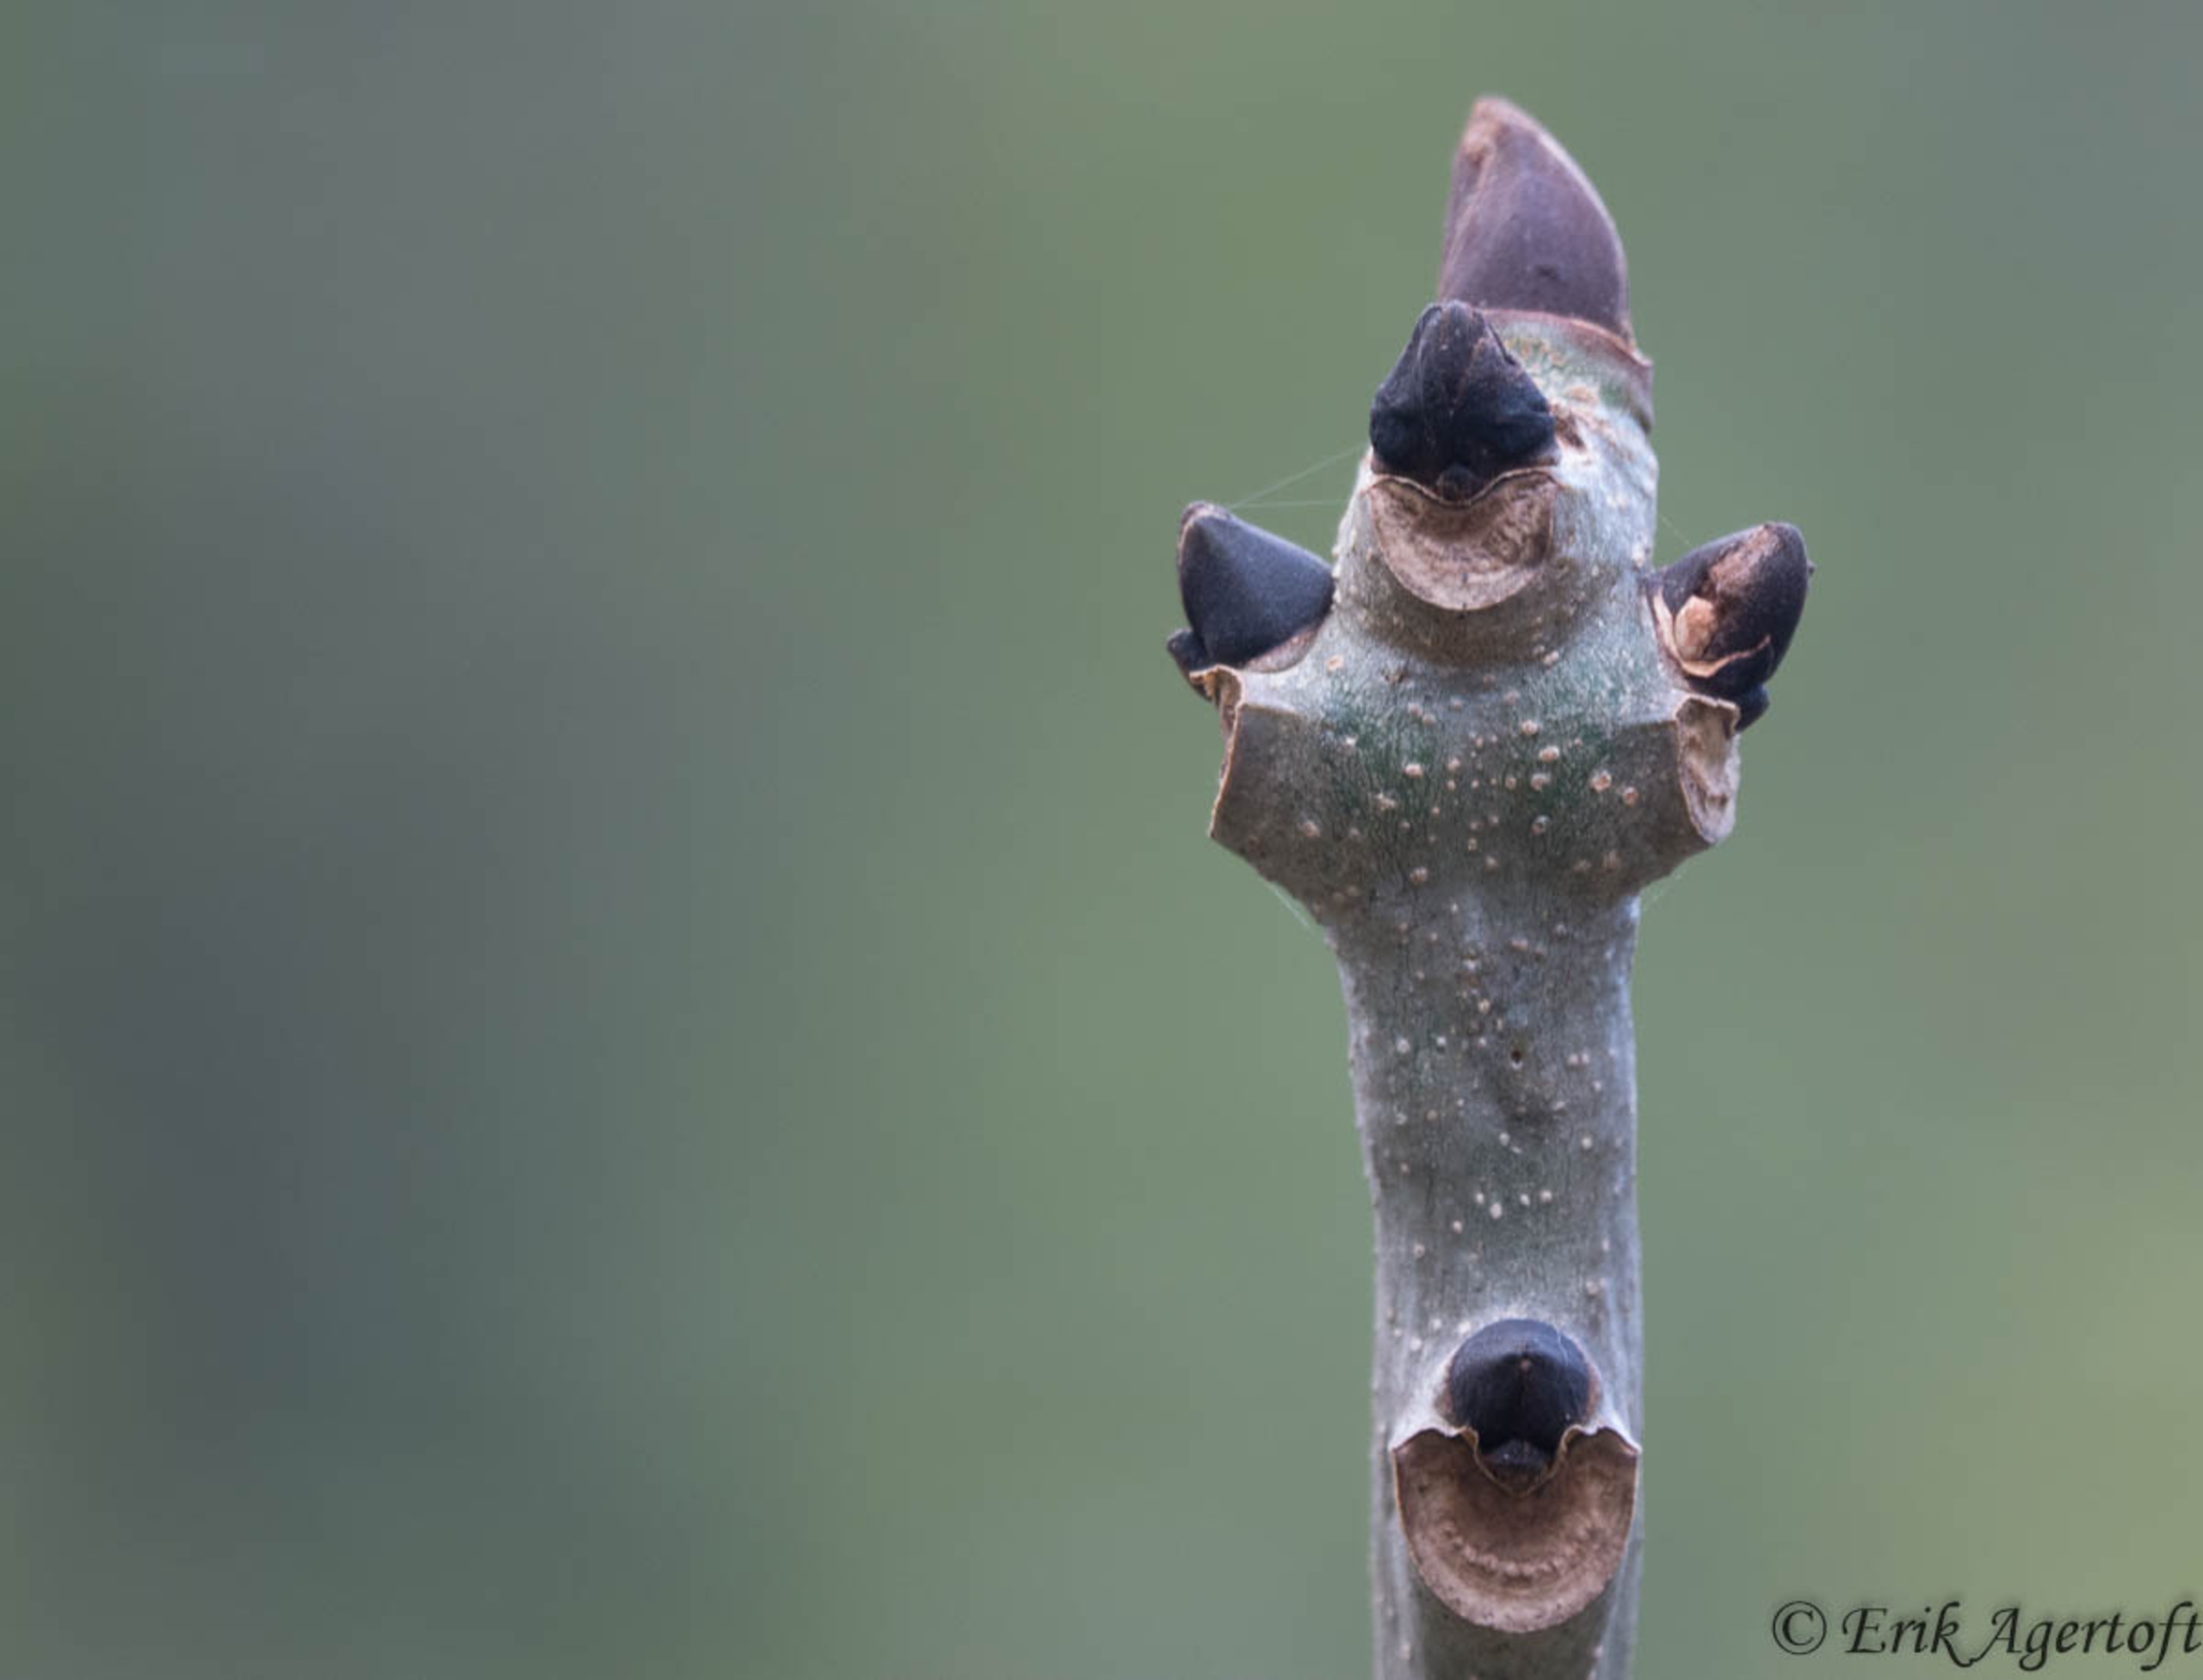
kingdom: Plantae
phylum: Tracheophyta
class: Magnoliopsida
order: Lamiales
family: Oleaceae
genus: Fraxinus
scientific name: Fraxinus excelsior
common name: Ask
